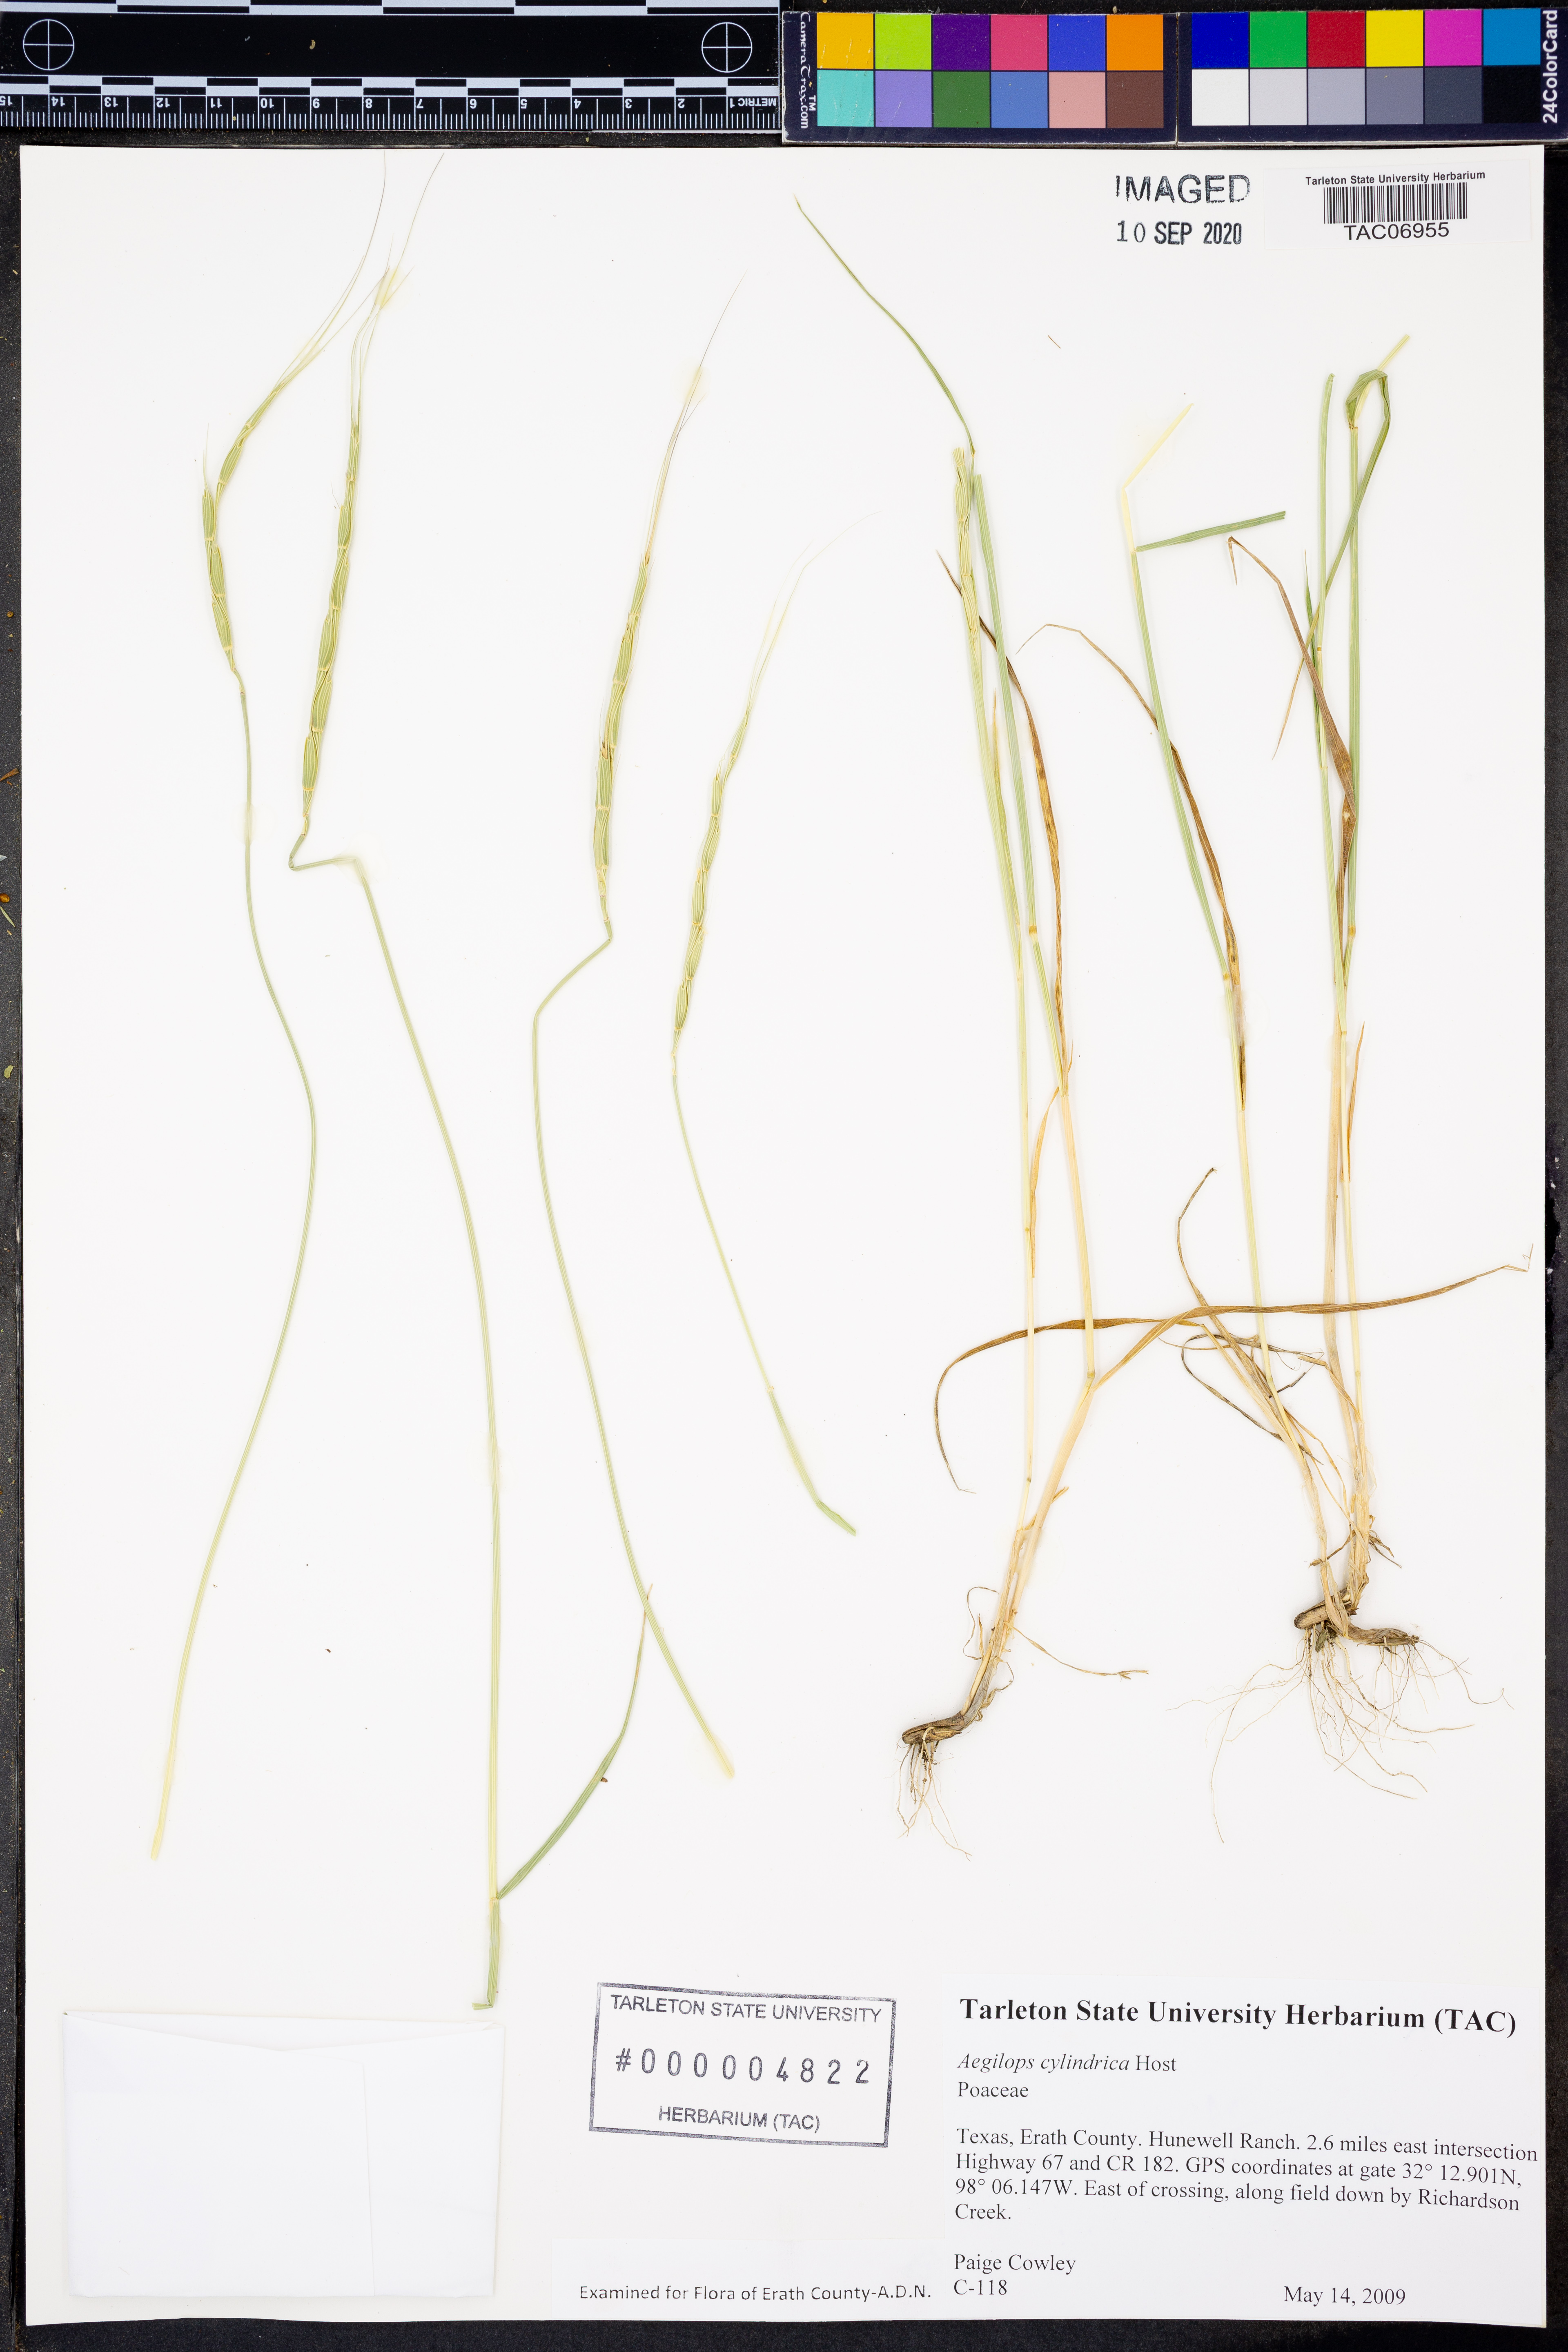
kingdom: Plantae
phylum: Tracheophyta
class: Liliopsida
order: Poales
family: Poaceae
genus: Aegilops
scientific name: Aegilops cylindrica
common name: Jointed goatgrass
